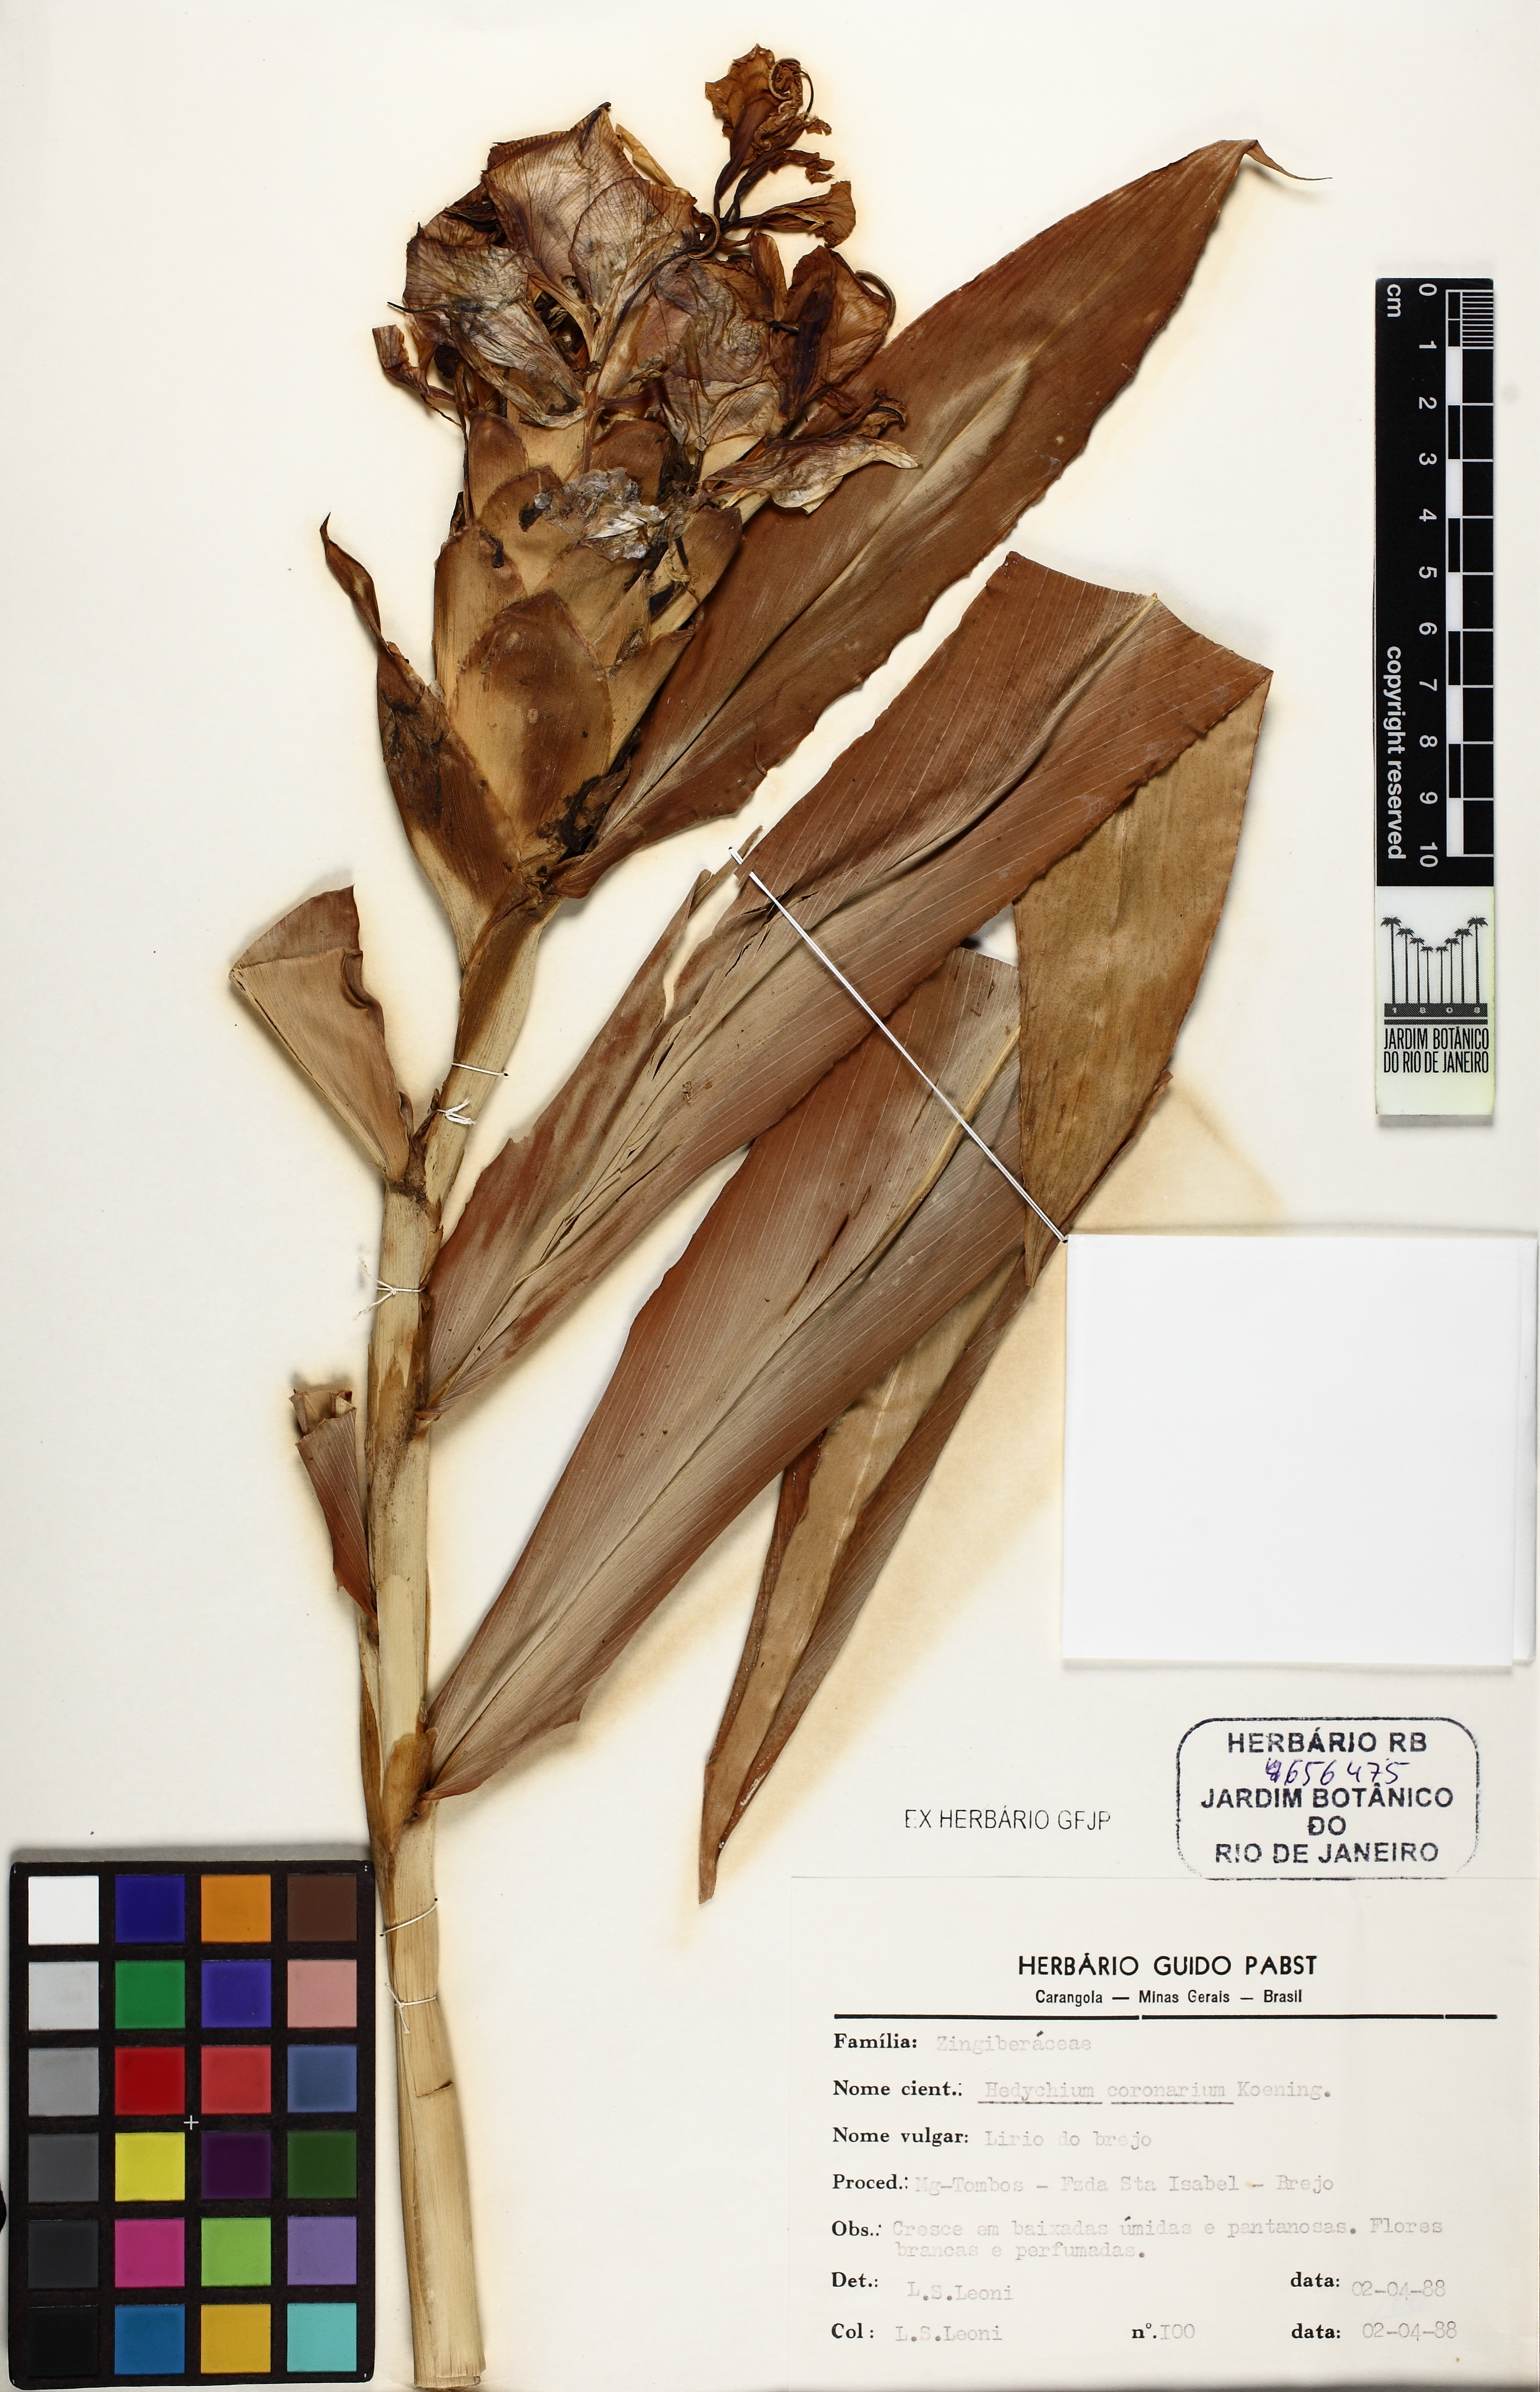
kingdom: Plantae
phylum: Tracheophyta
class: Liliopsida
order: Zingiberales
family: Zingiberaceae
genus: Hedychium
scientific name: Hedychium coronarium
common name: White garland-lily
